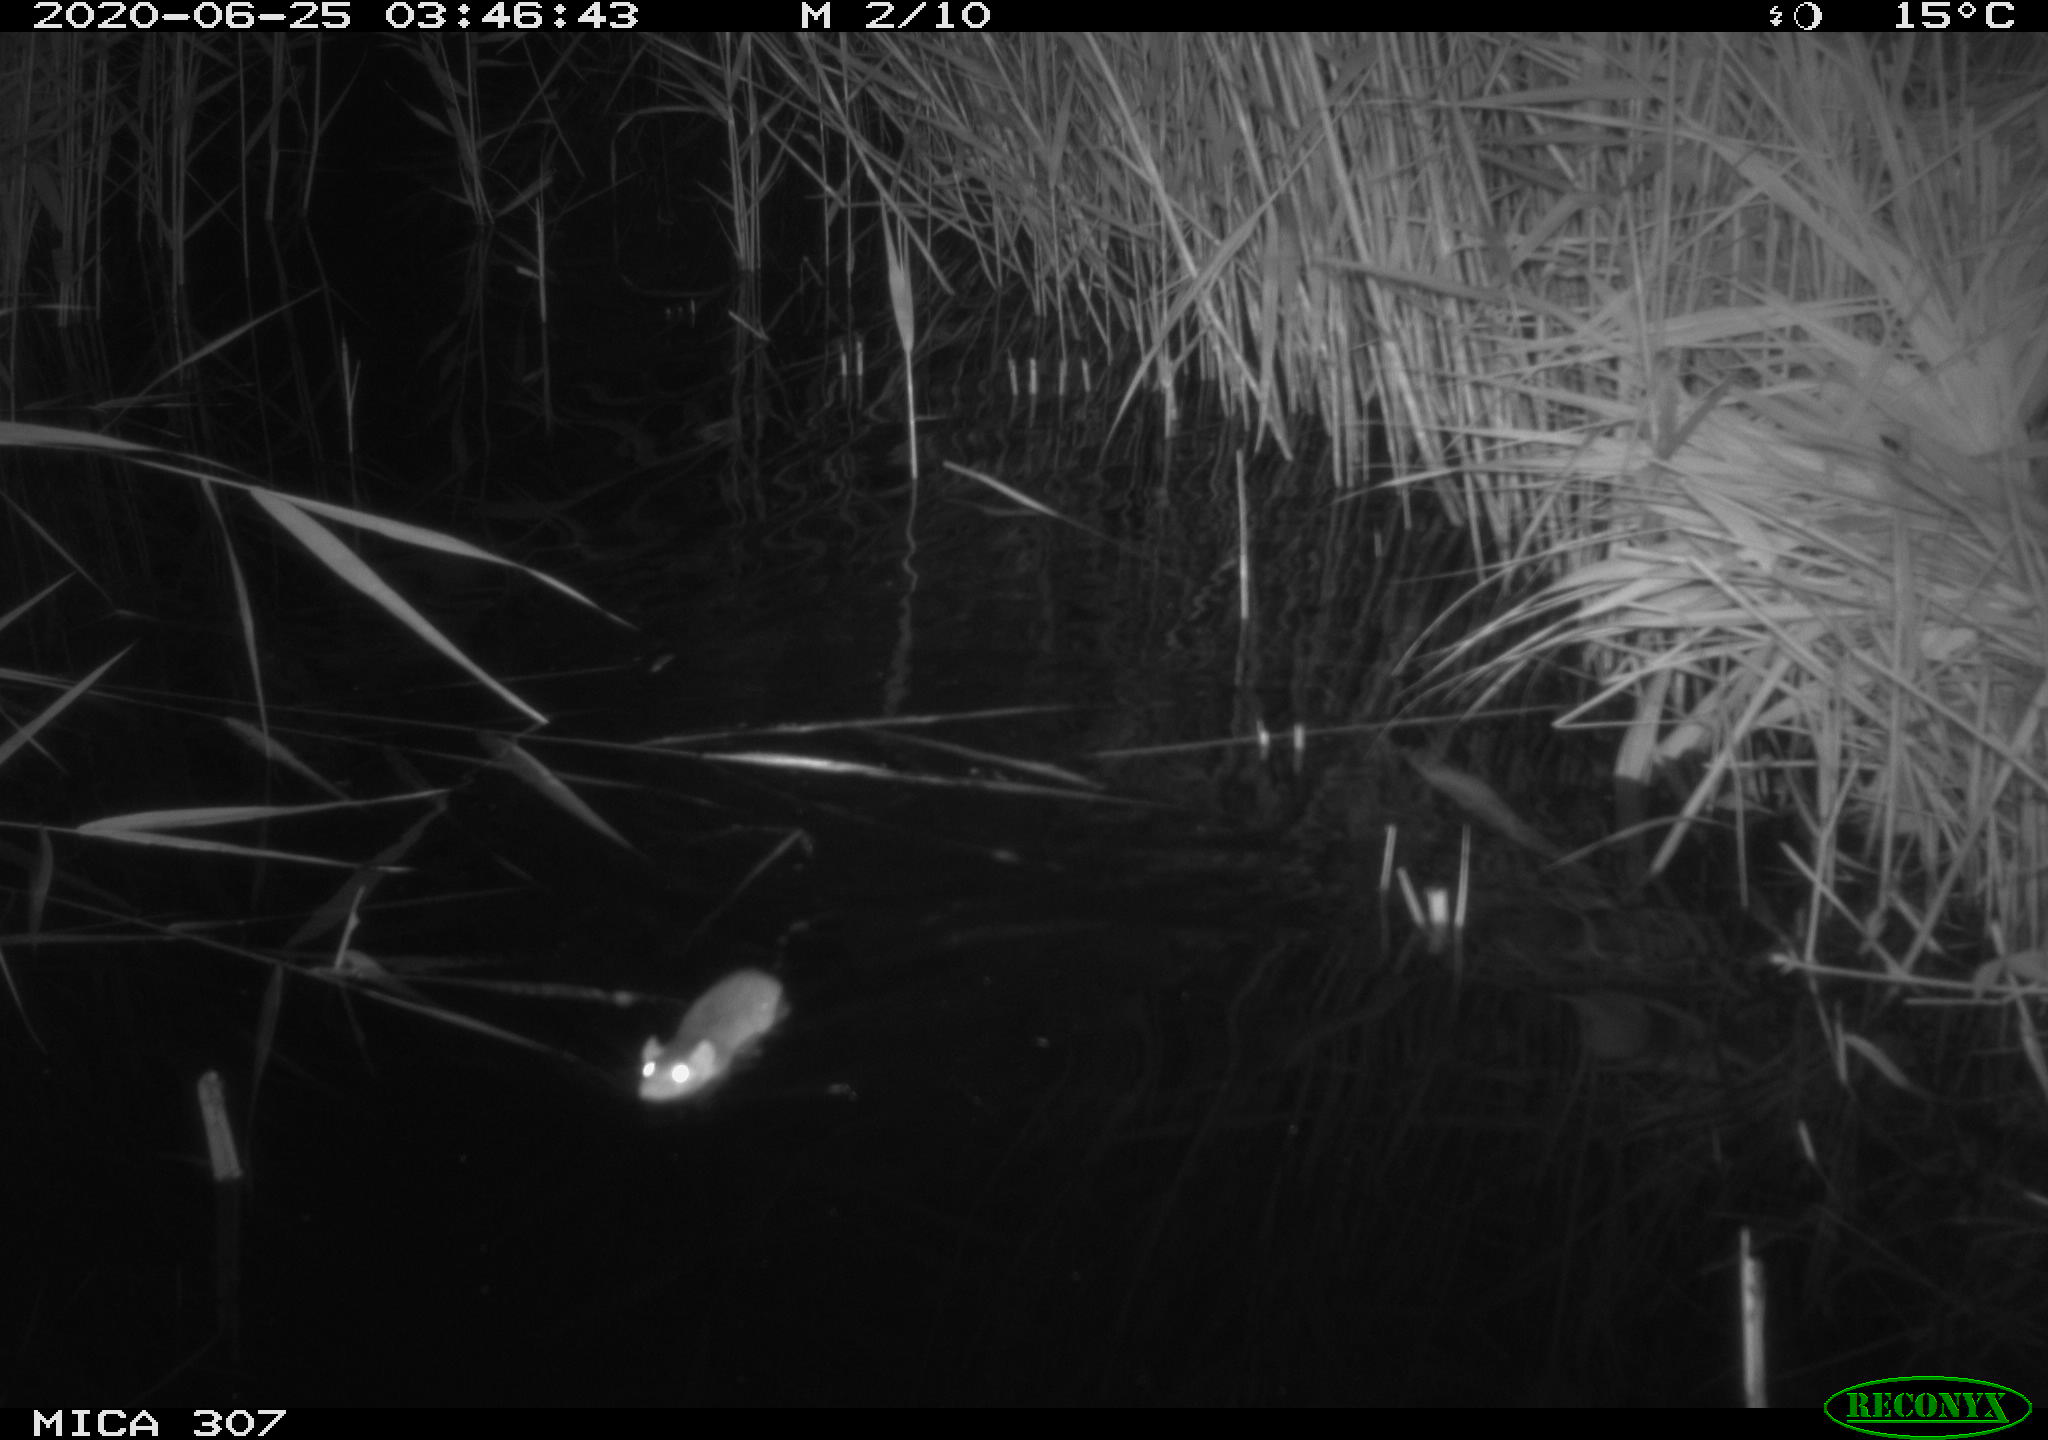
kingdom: Animalia
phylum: Chordata
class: Mammalia
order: Rodentia
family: Muridae
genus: Rattus
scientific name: Rattus norvegicus
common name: Brown rat
